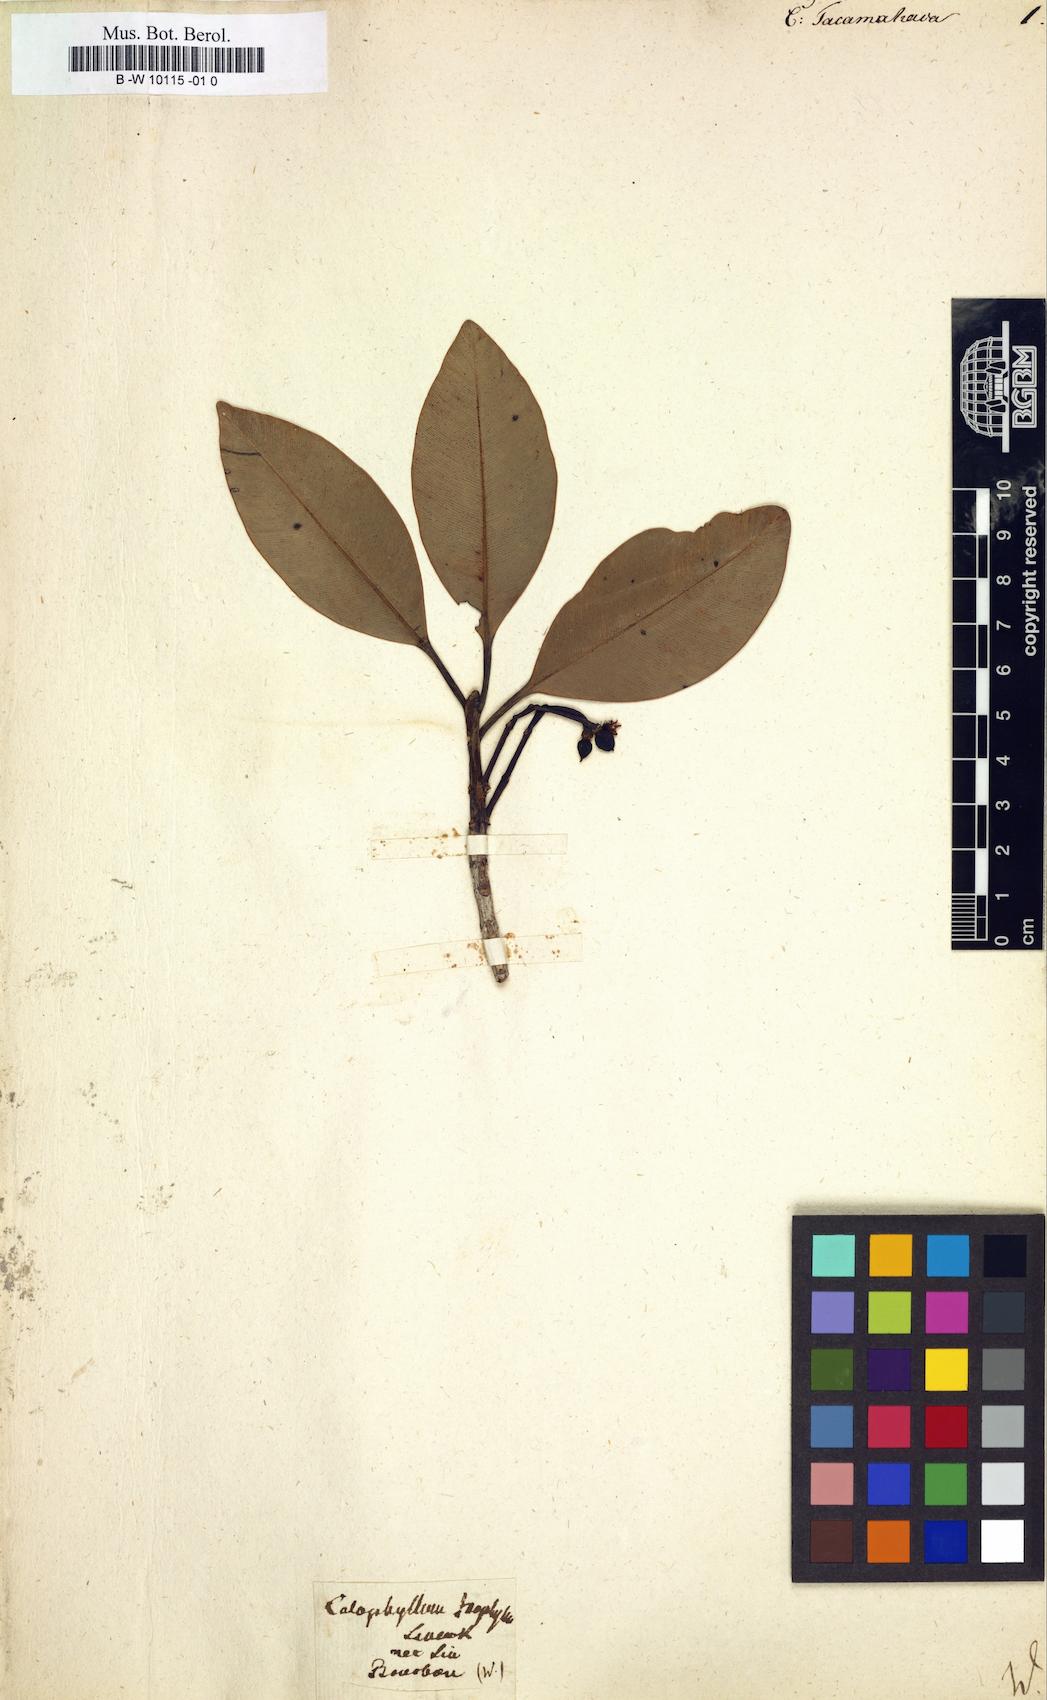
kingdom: Plantae
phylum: Tracheophyta
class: Magnoliopsida
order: Malpighiales
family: Calophyllaceae
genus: Calophyllum
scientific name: Calophyllum tacamahaca
